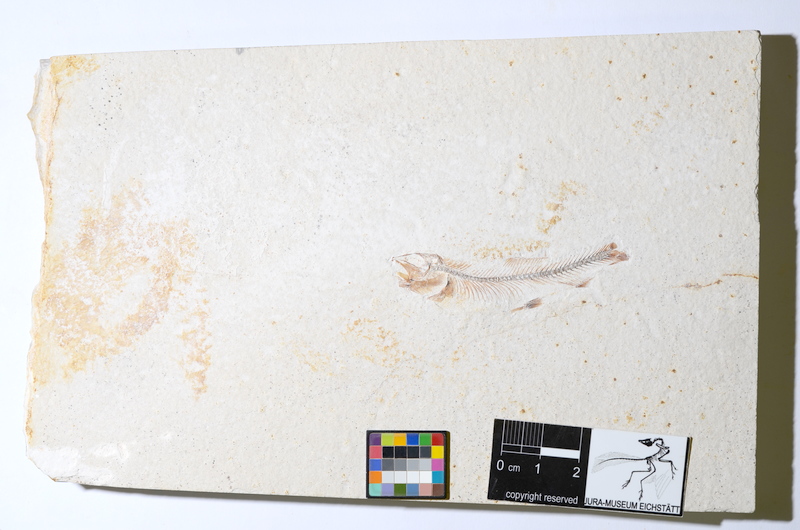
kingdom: Animalia
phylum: Chordata
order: Salmoniformes
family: Orthogonikleithridae
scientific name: Orthogonikleithridae
